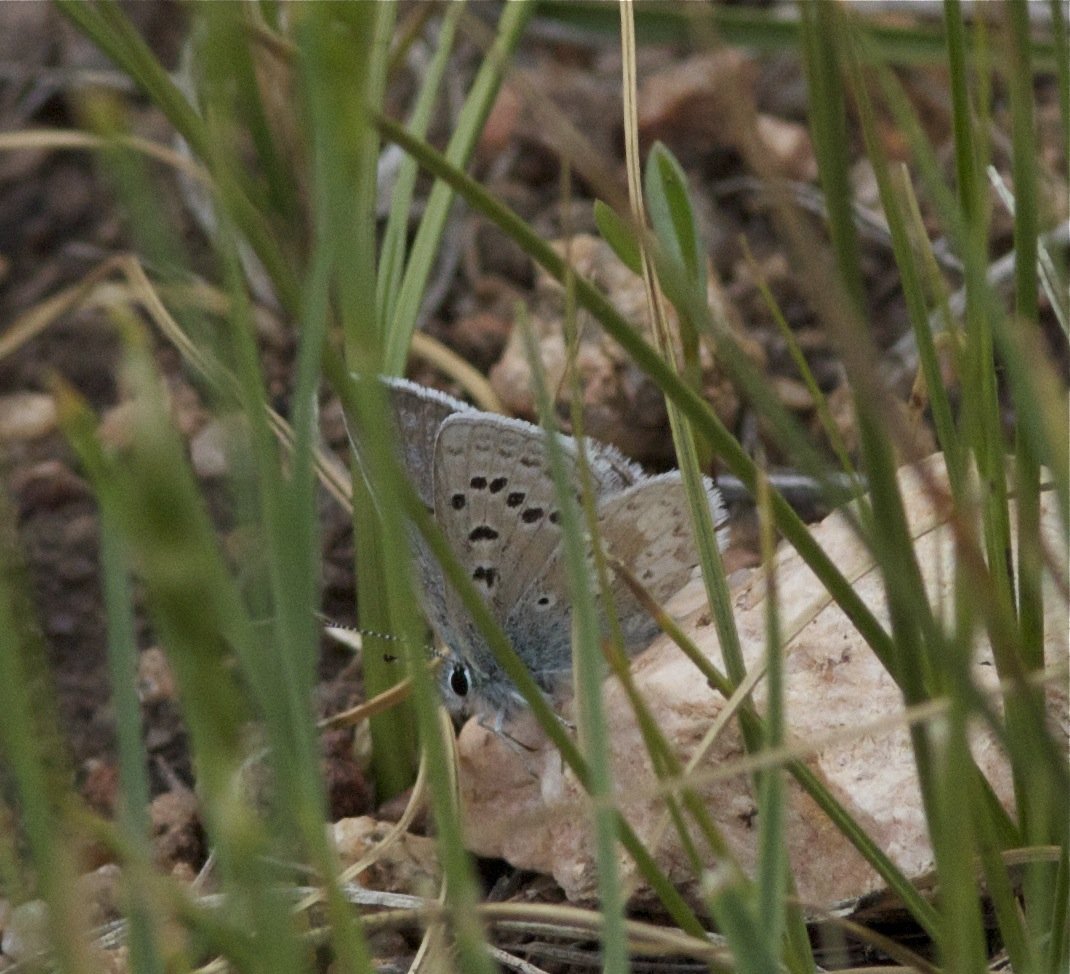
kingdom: Animalia
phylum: Arthropoda
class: Insecta
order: Lepidoptera
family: Lycaenidae
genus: Agriades
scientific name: Agriades glandon
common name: Arctic Blue
